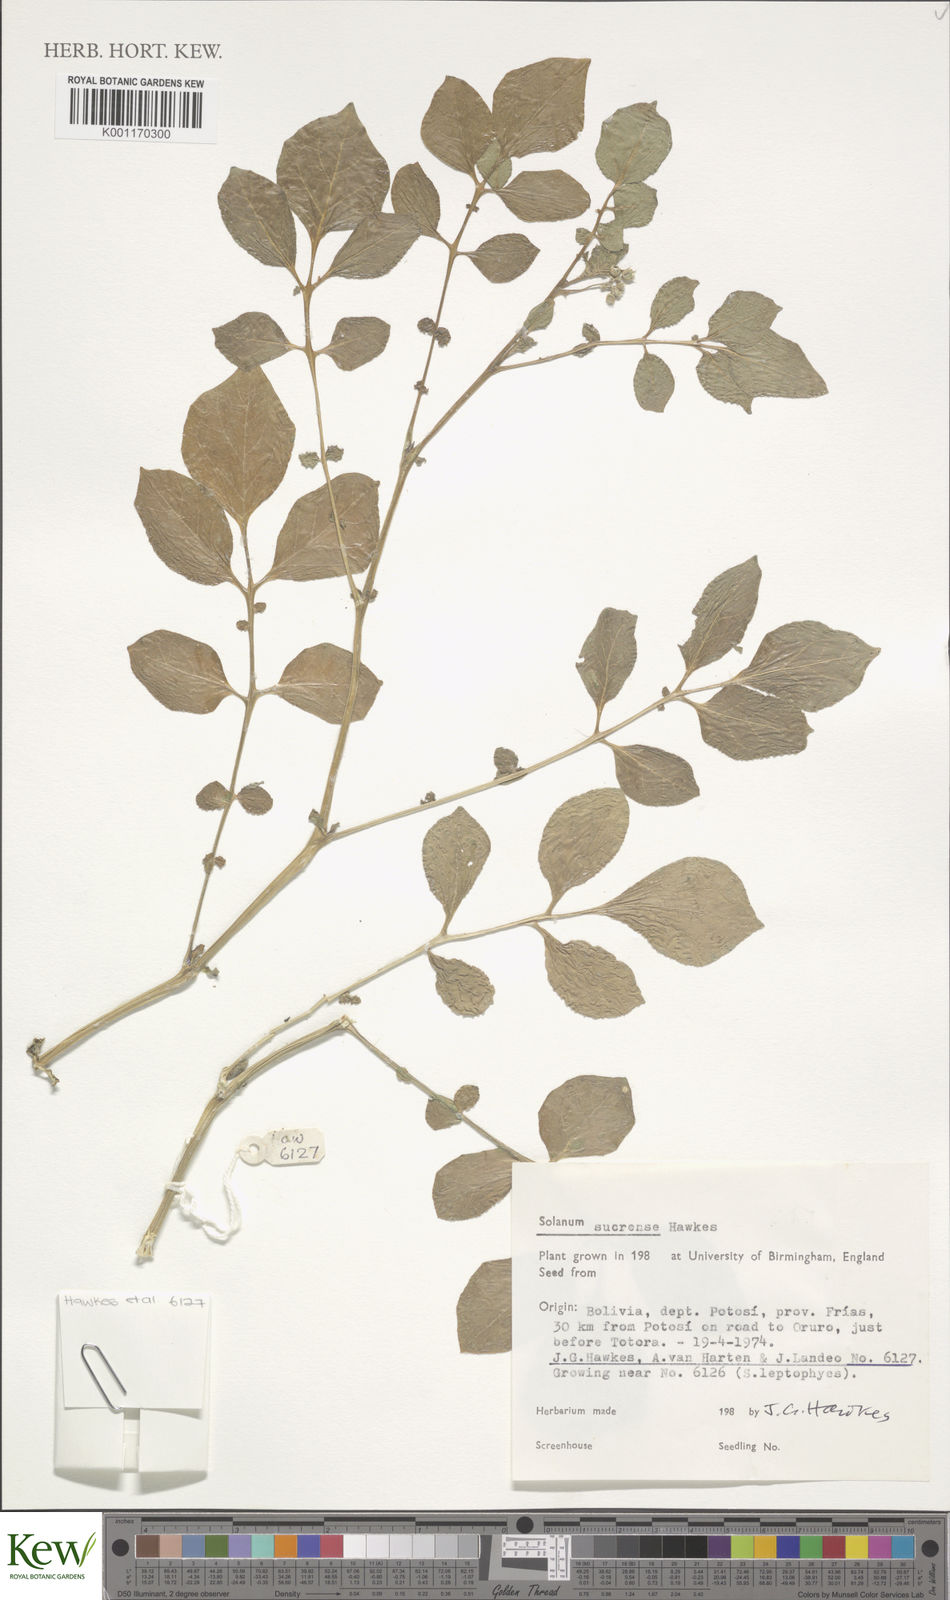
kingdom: Plantae
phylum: Tracheophyta
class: Magnoliopsida
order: Solanales
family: Solanaceae
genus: Solanum
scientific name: Solanum brevicaule
